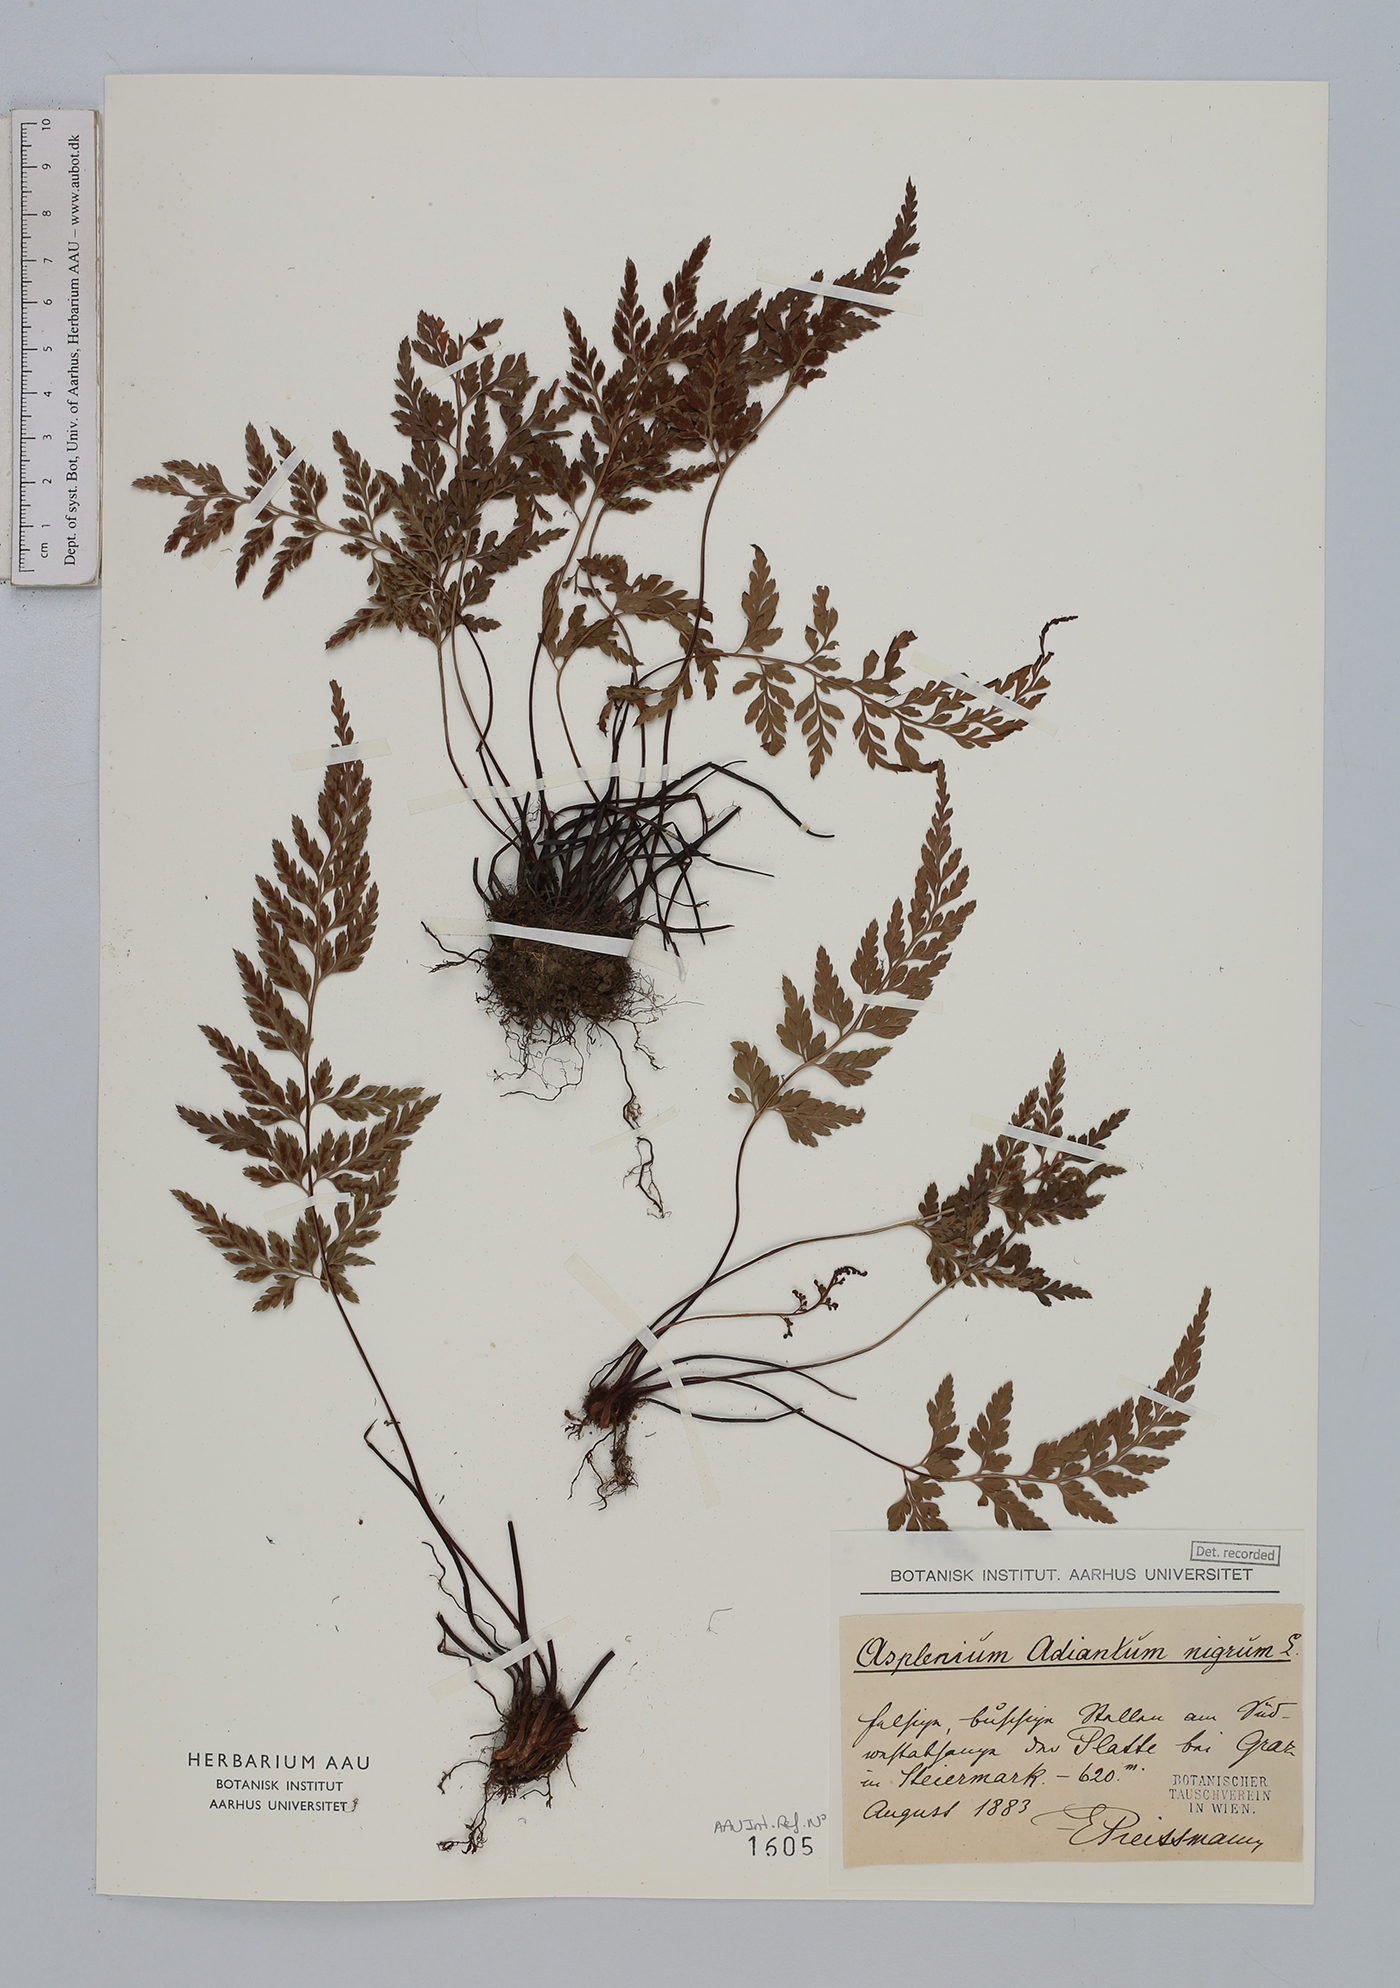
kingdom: Plantae
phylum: Tracheophyta
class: Polypodiopsida
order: Polypodiales
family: Aspleniaceae
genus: Asplenium
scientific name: Asplenium adiantum-nigrum
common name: Black spleenwort
